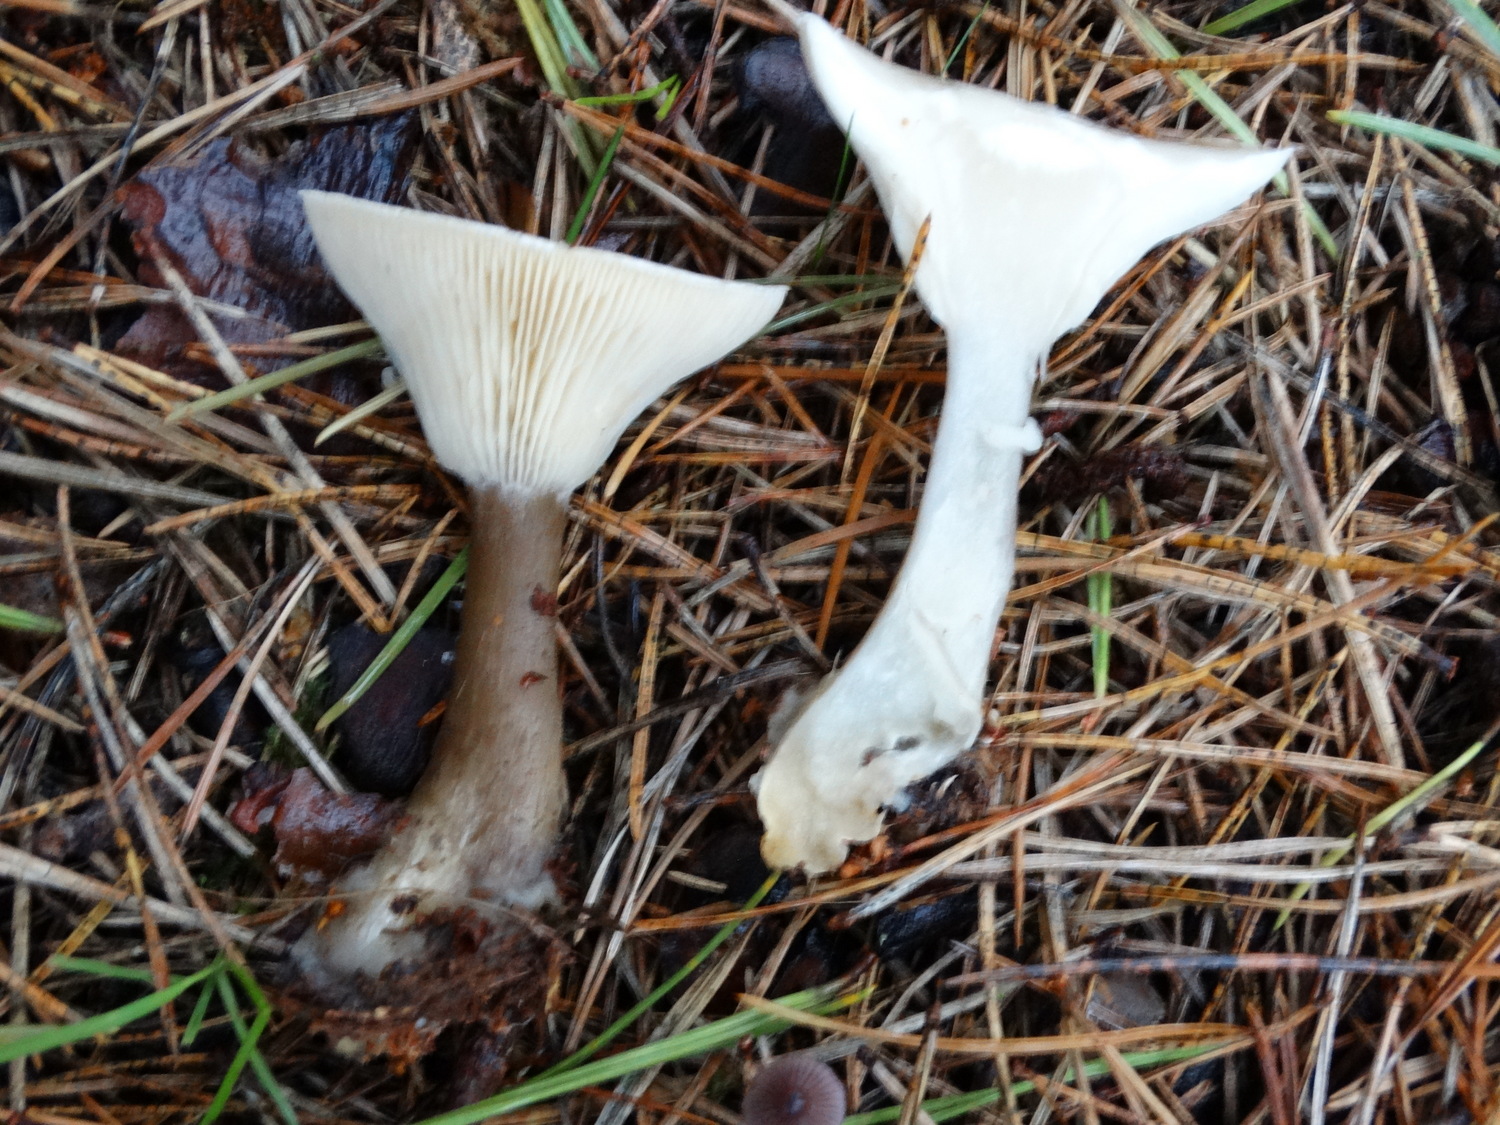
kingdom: Fungi
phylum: Basidiomycota
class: Agaricomycetes
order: Agaricales
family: Hygrophoraceae
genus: Ampulloclitocybe
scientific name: Ampulloclitocybe clavipes
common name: køllefod
